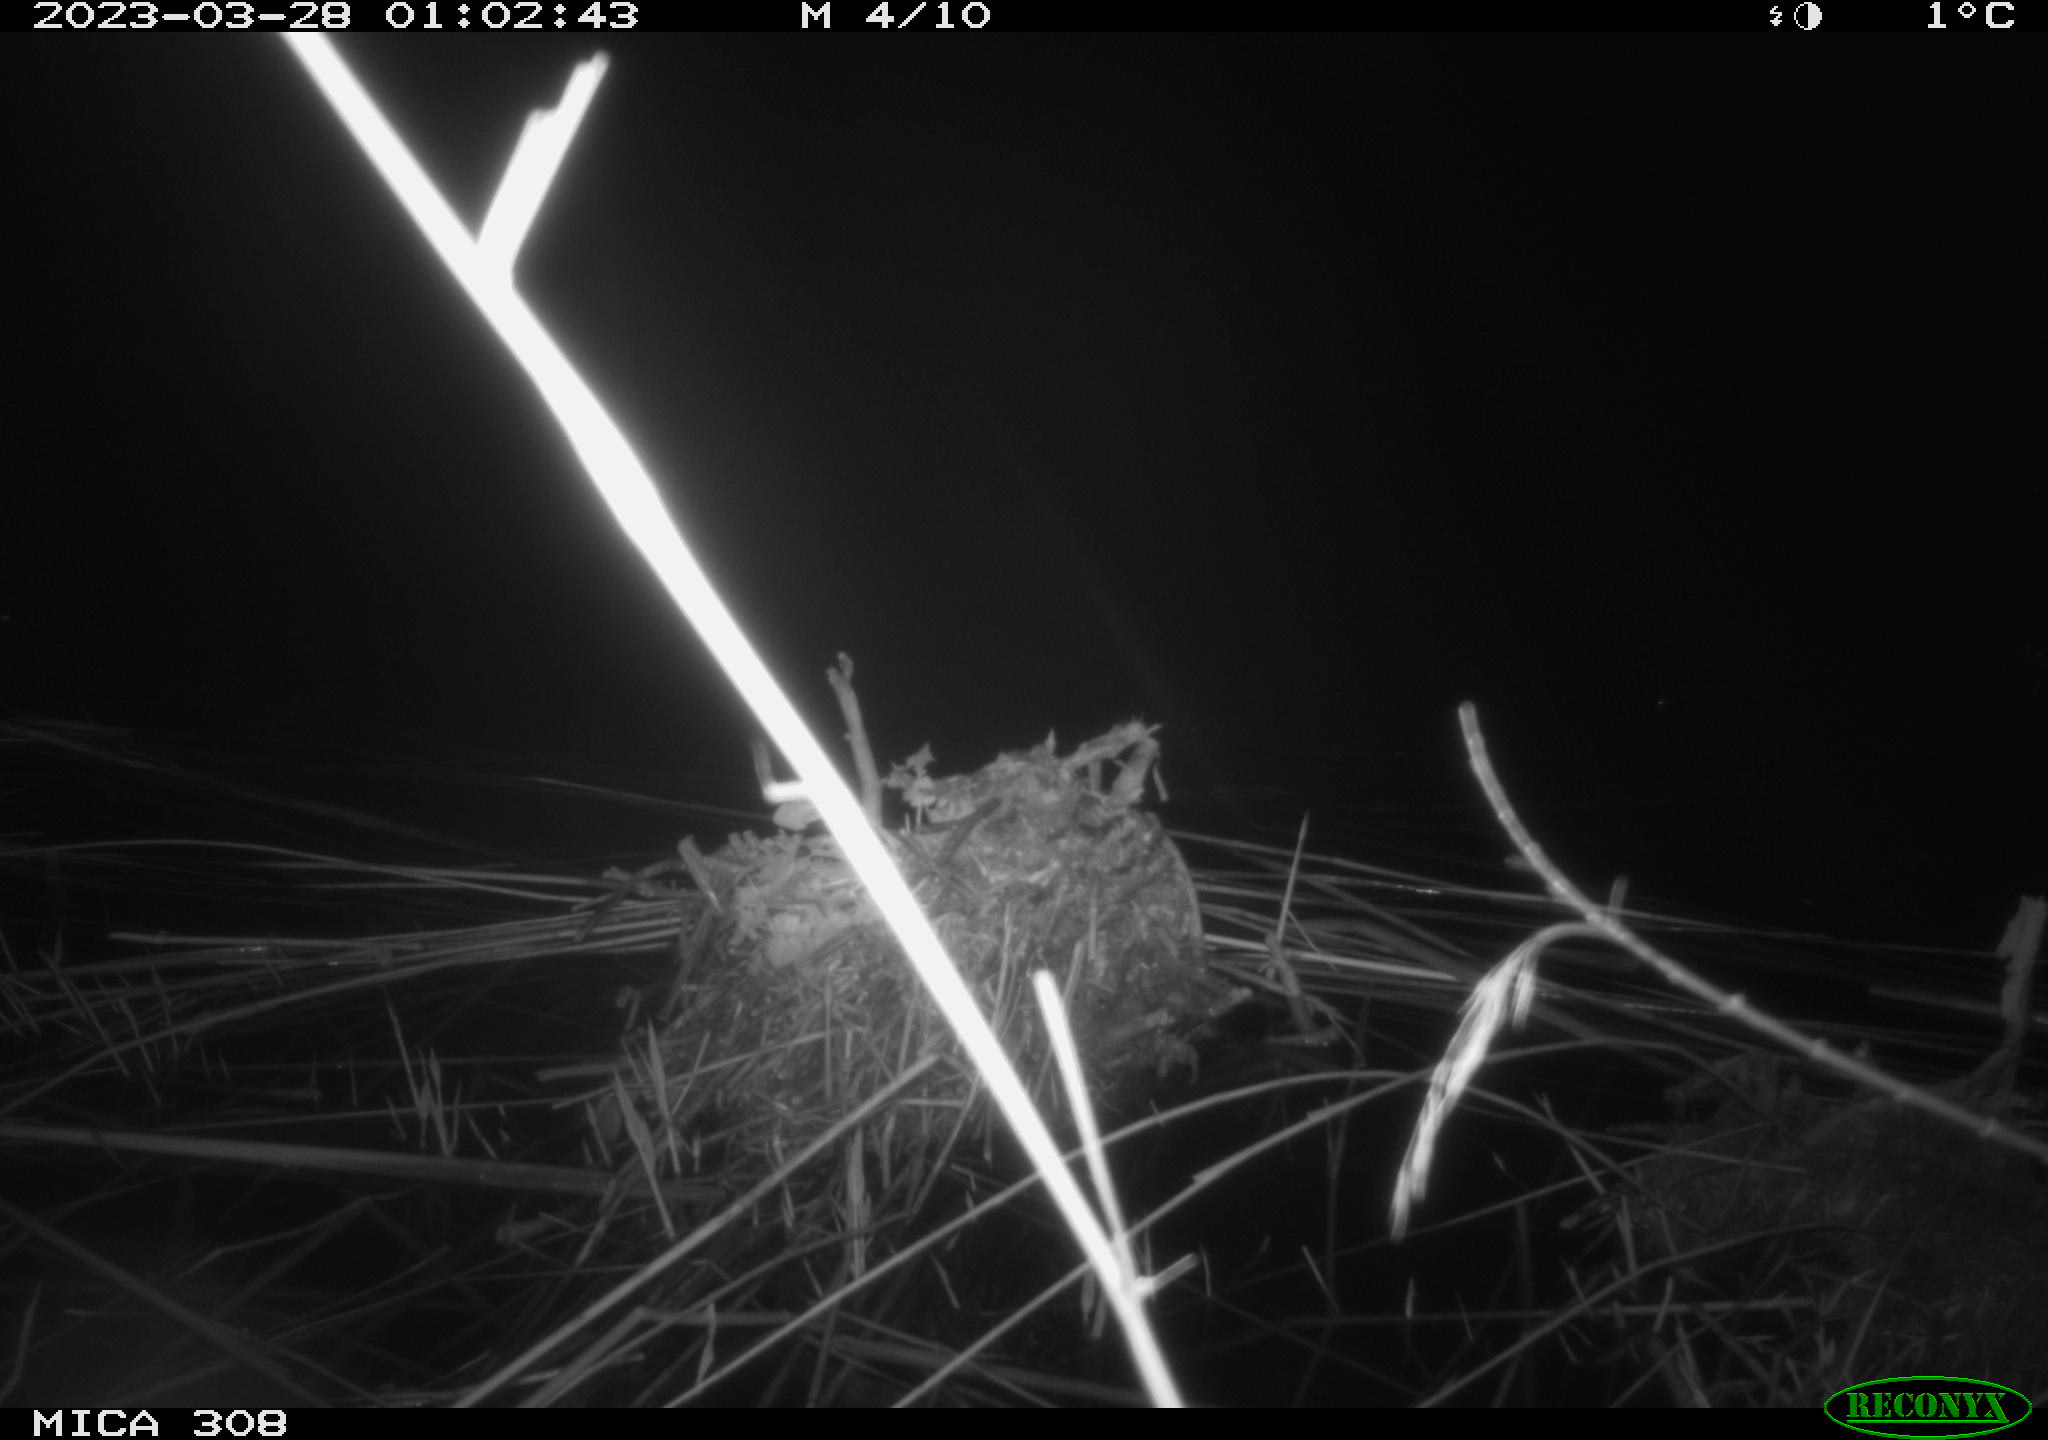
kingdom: Animalia
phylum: Chordata
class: Mammalia
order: Rodentia
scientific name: Rodentia
